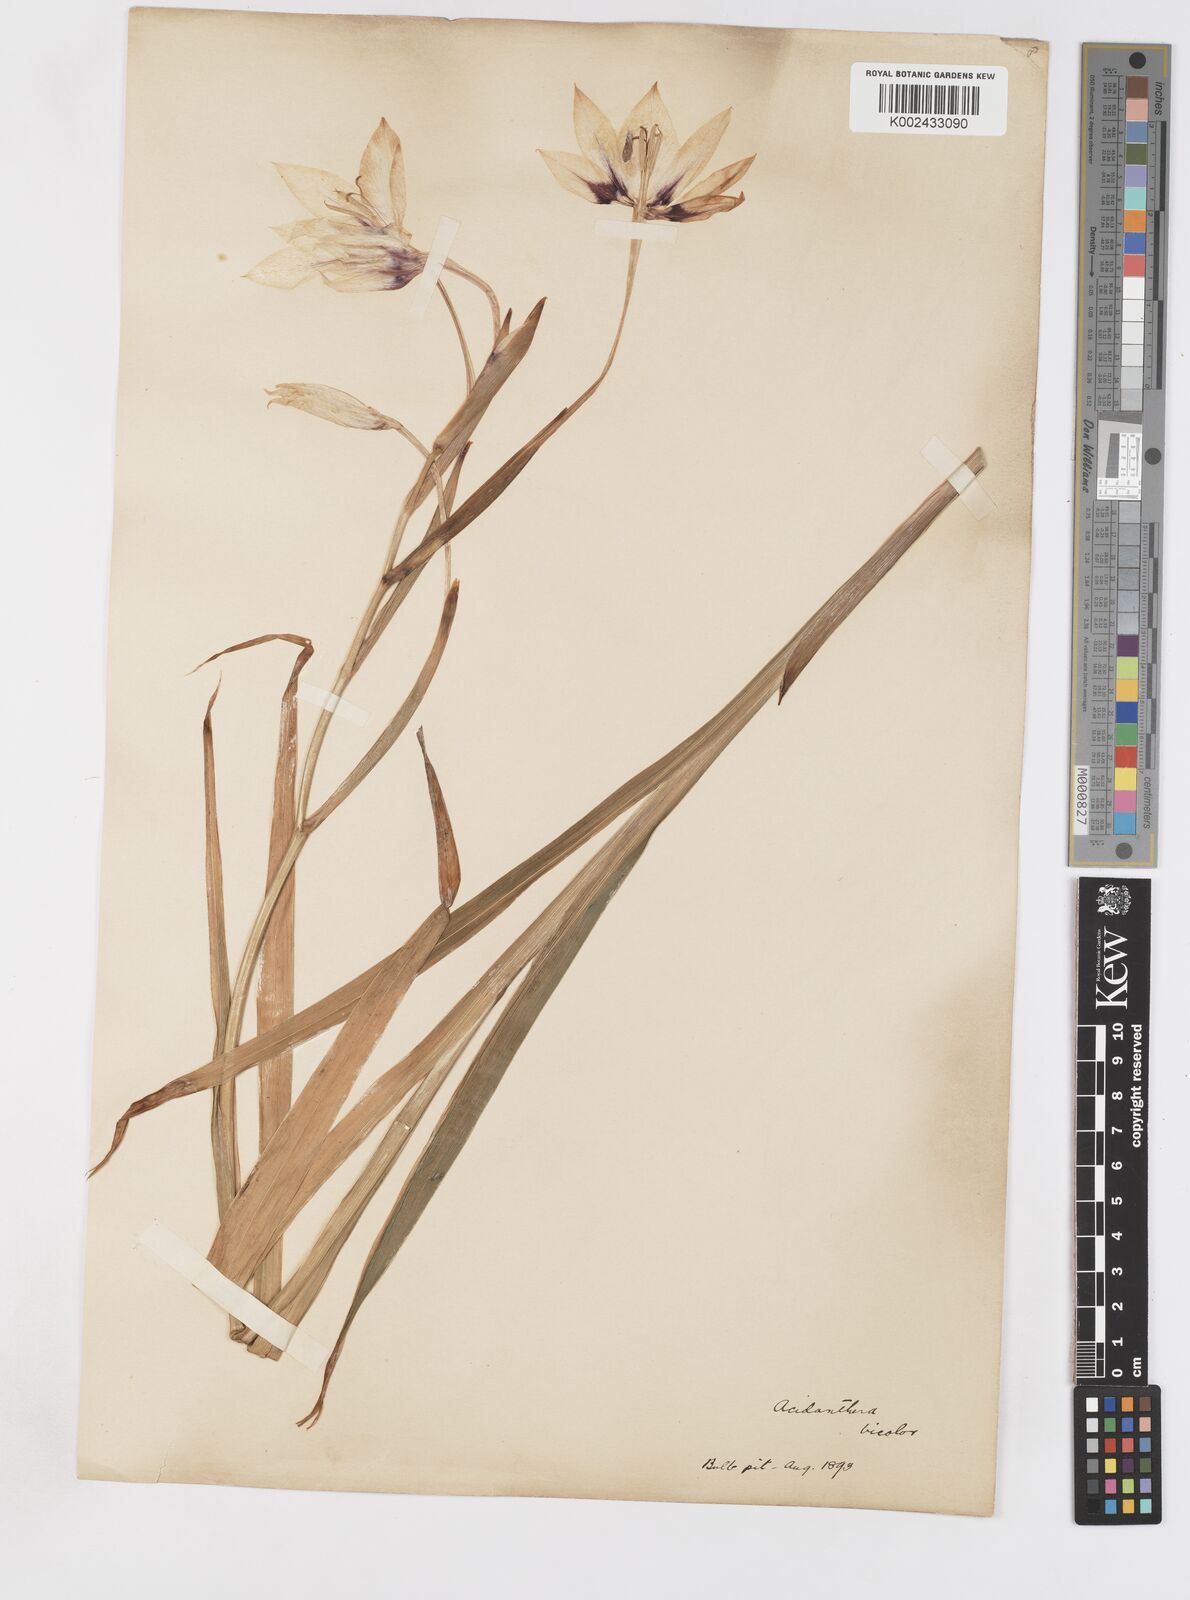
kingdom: Plantae
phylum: Tracheophyta
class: Liliopsida
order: Asparagales
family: Iridaceae
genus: Gladiolus
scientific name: Gladiolus murielae
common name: Acidanthera
